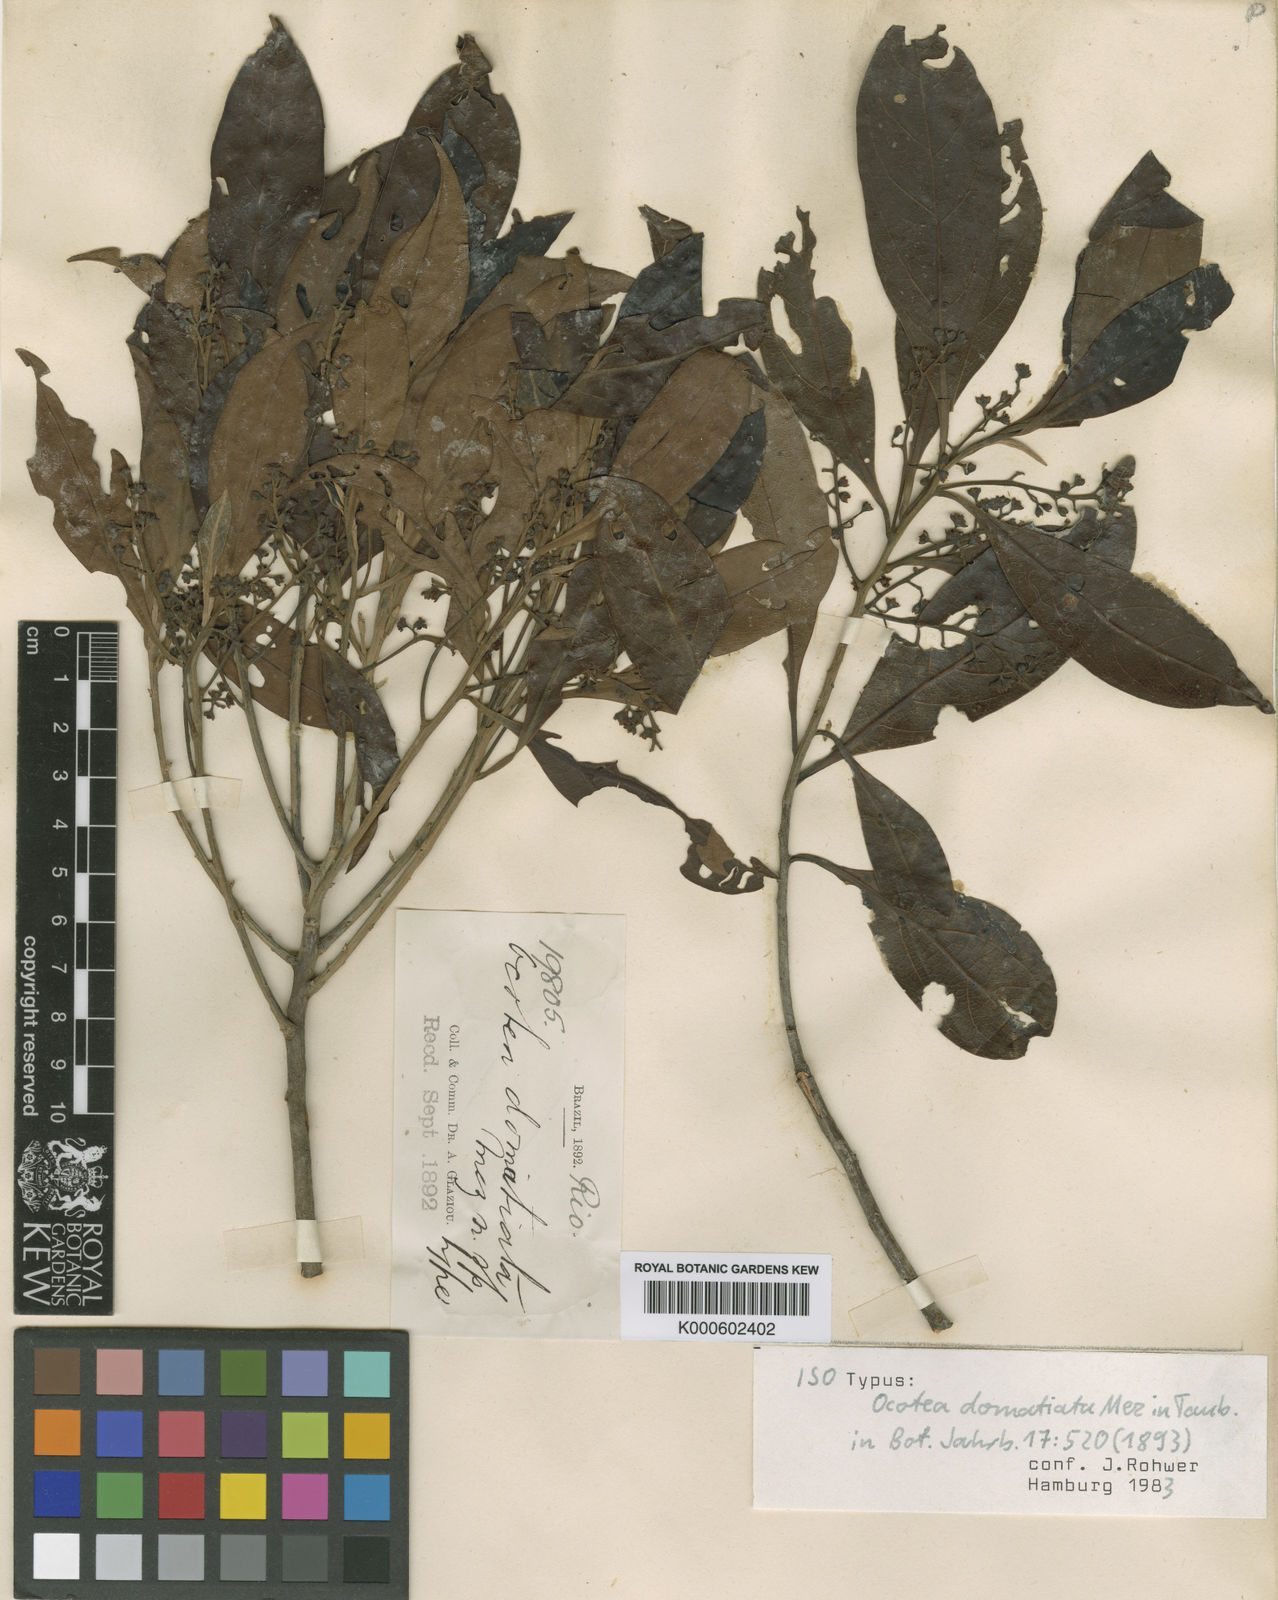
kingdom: Plantae
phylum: Tracheophyta
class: Magnoliopsida
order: Laurales
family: Lauraceae
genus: Ocotea
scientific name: Ocotea
